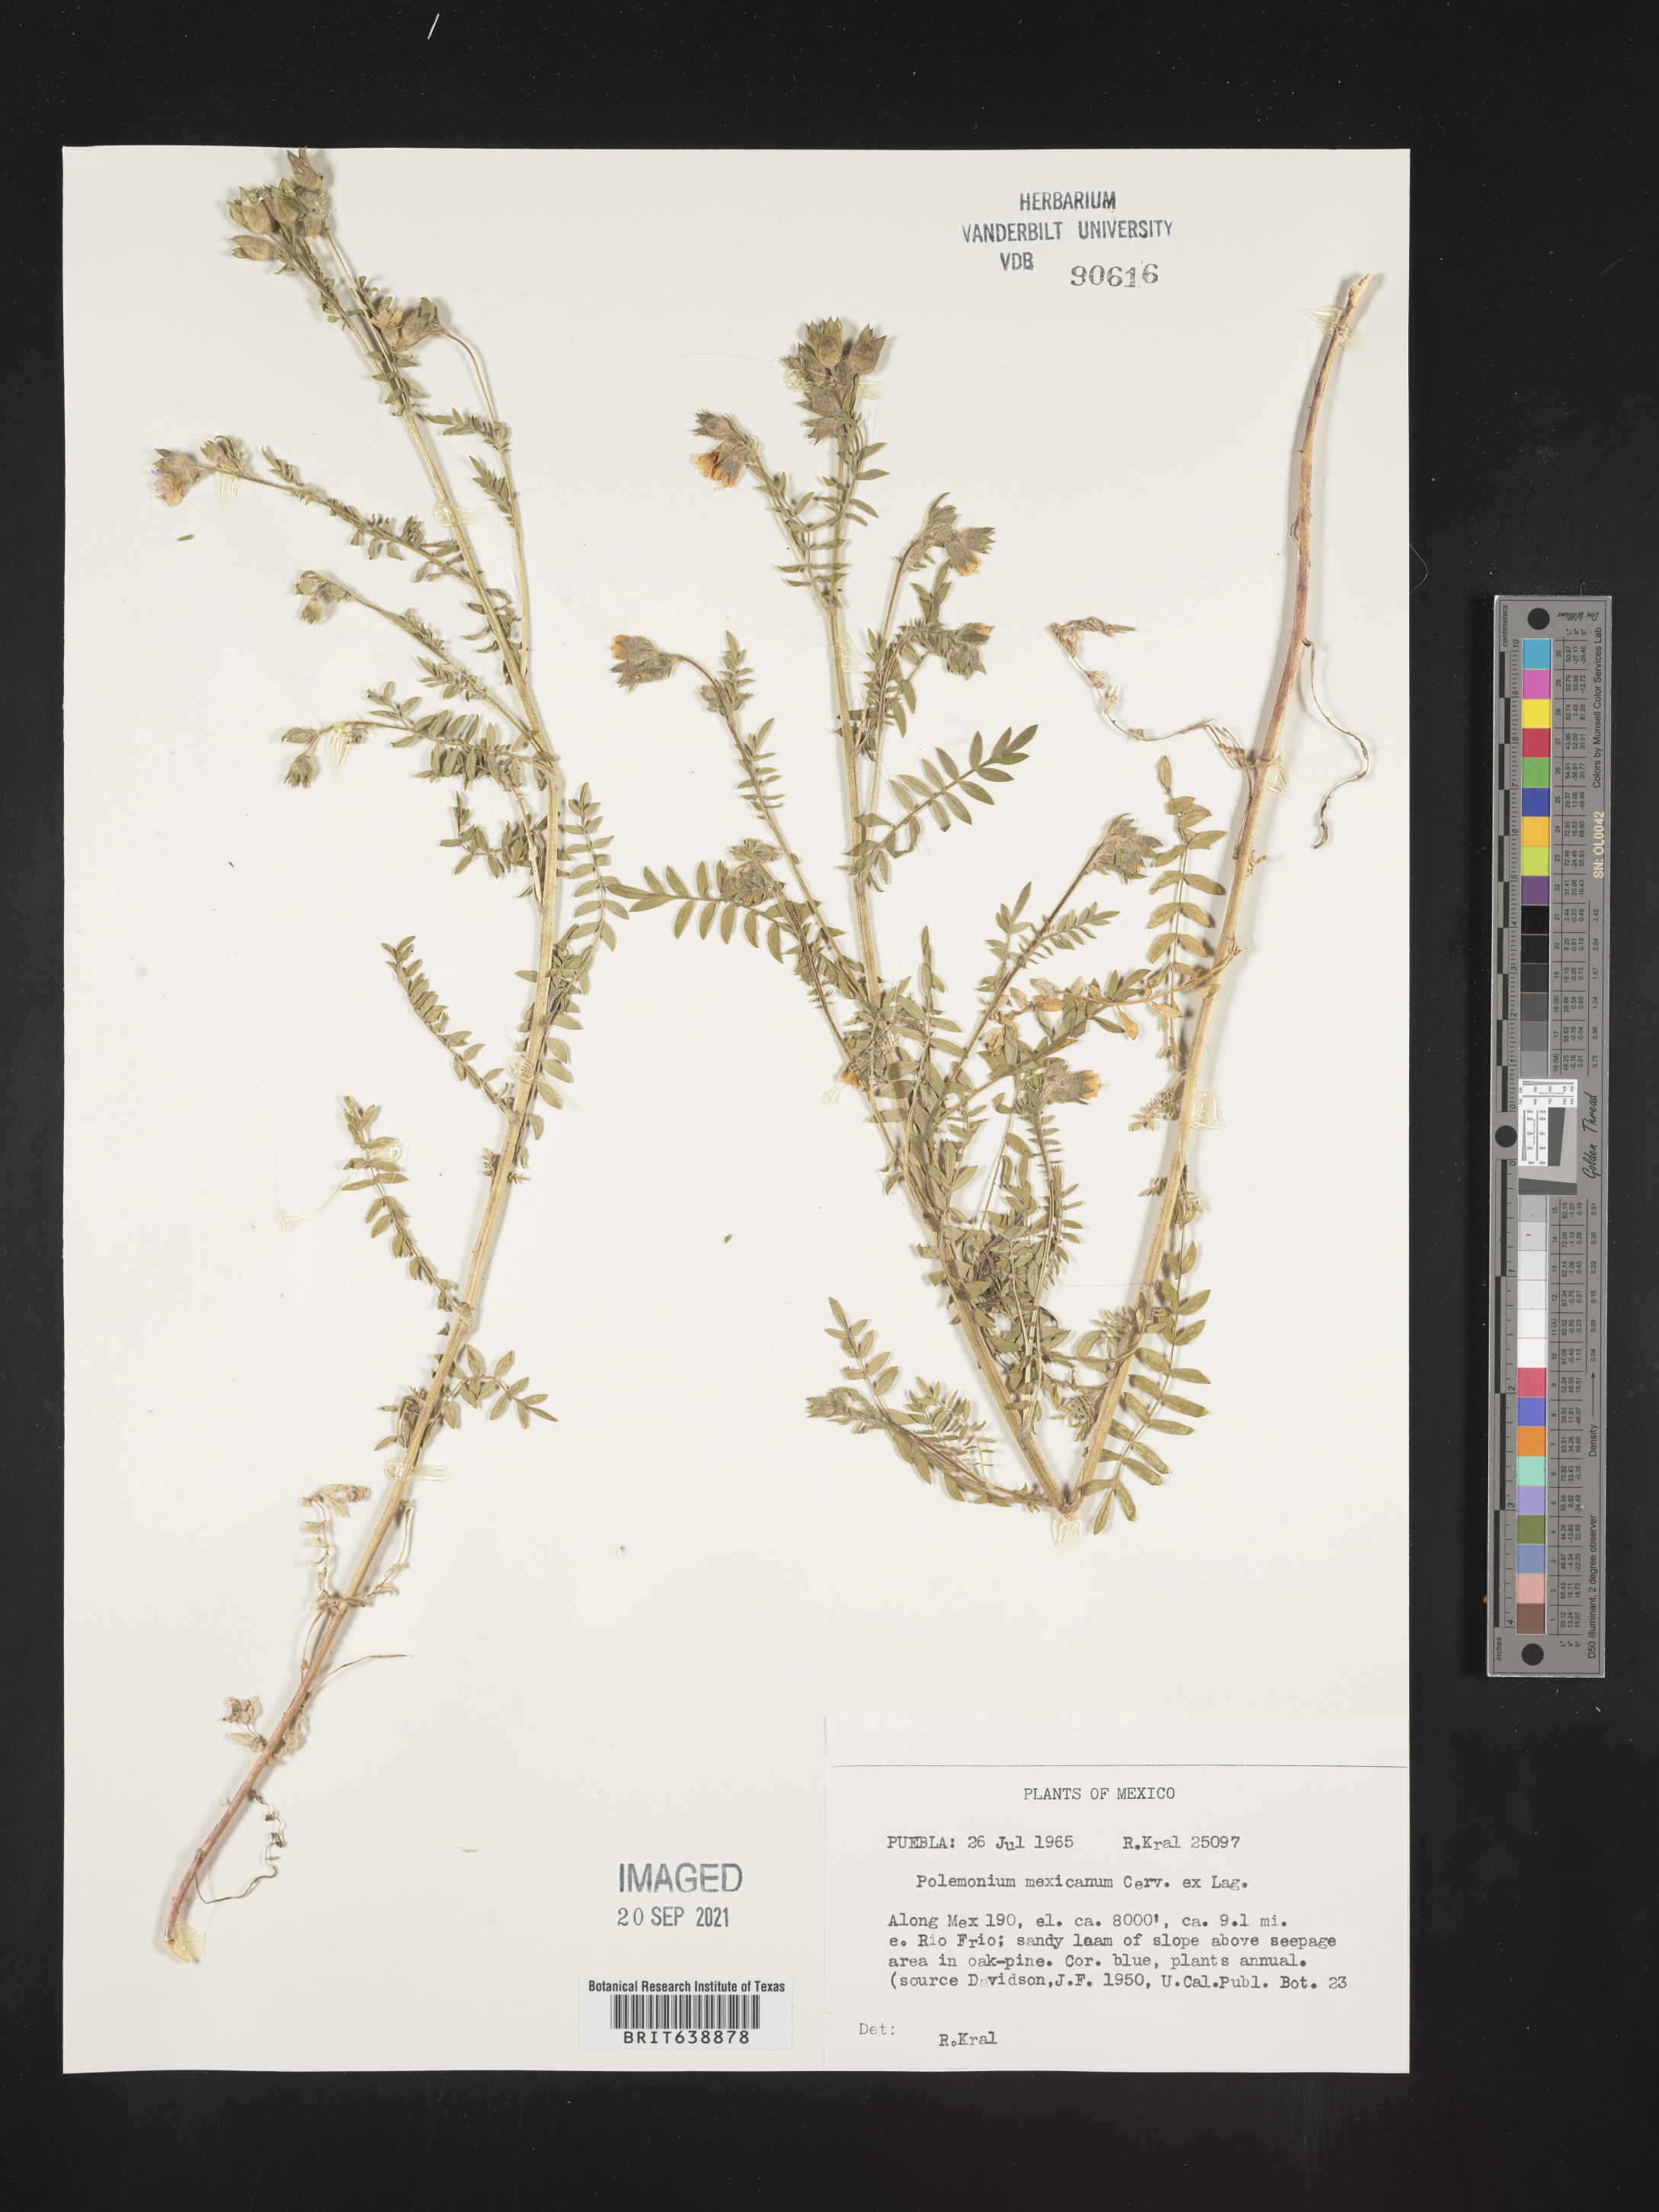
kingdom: Plantae
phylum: Tracheophyta
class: Magnoliopsida
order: Ericales
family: Polemoniaceae
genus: Polemonium
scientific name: Polemonium
